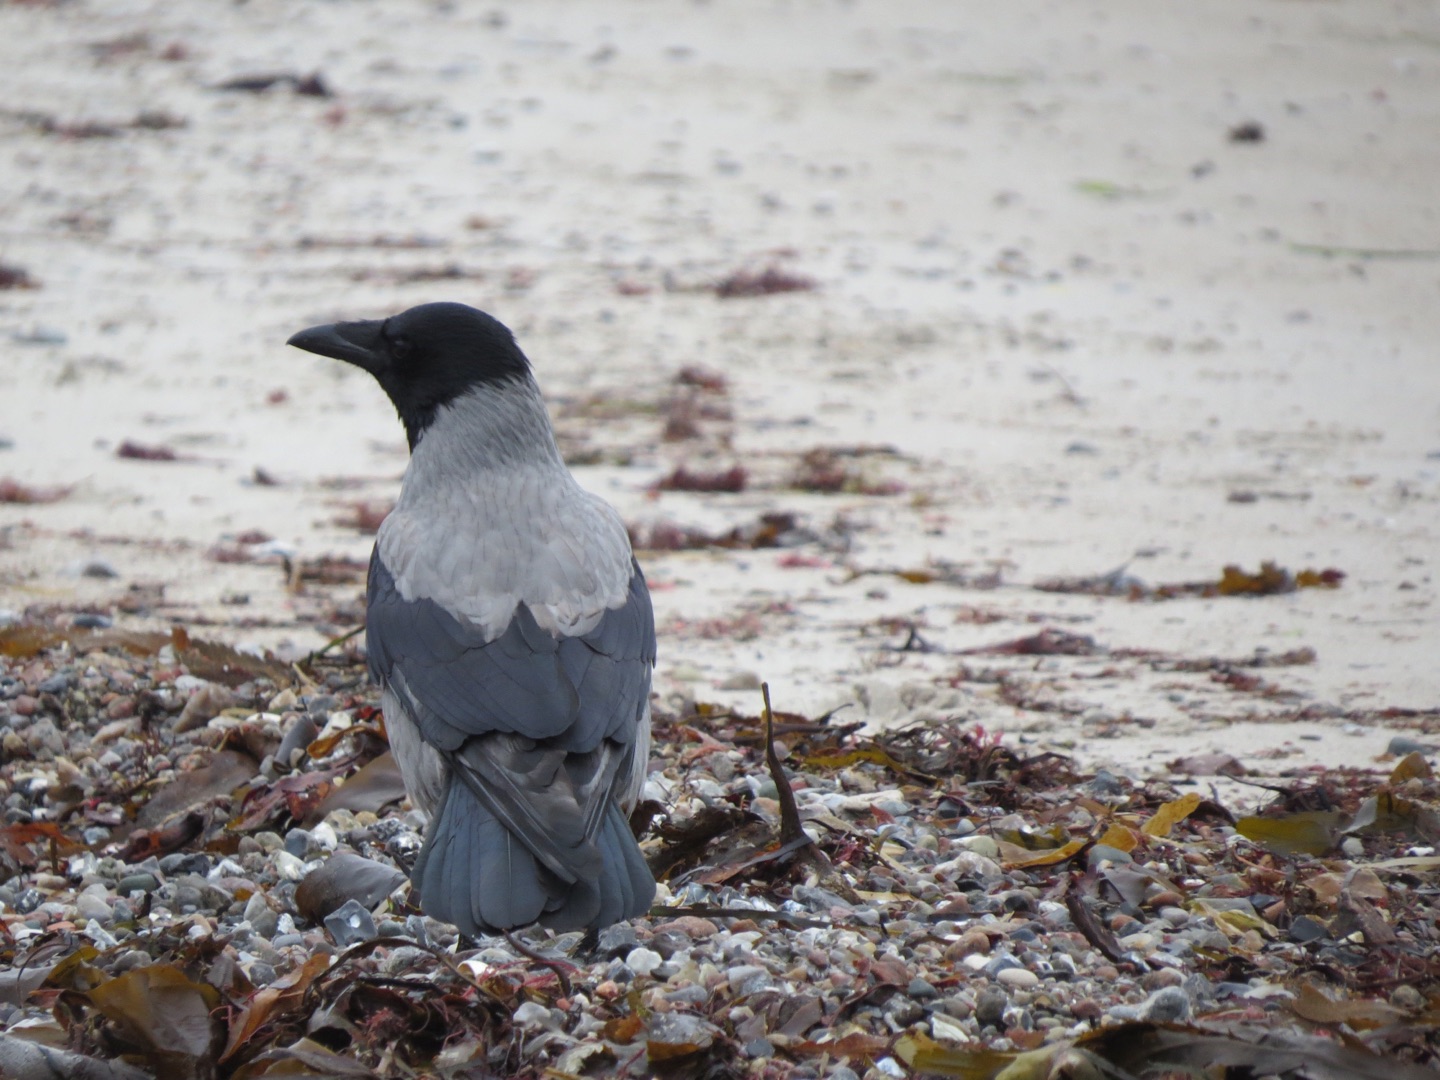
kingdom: Animalia
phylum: Chordata
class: Aves
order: Passeriformes
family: Corvidae
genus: Corvus
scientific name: Corvus cornix
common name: Gråkrage
